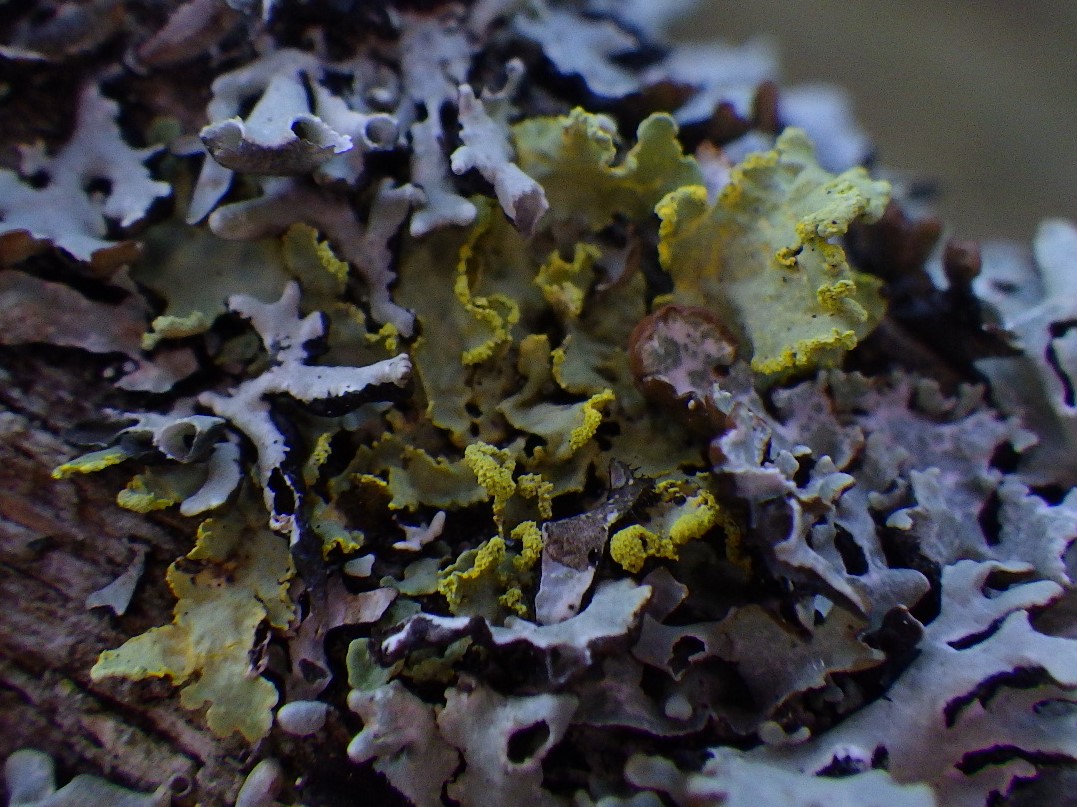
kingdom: Fungi
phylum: Ascomycota
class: Lecanoromycetes
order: Lecanorales
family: Parmeliaceae
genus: Vulpicida
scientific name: Vulpicida pinastri
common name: gul kruslav
